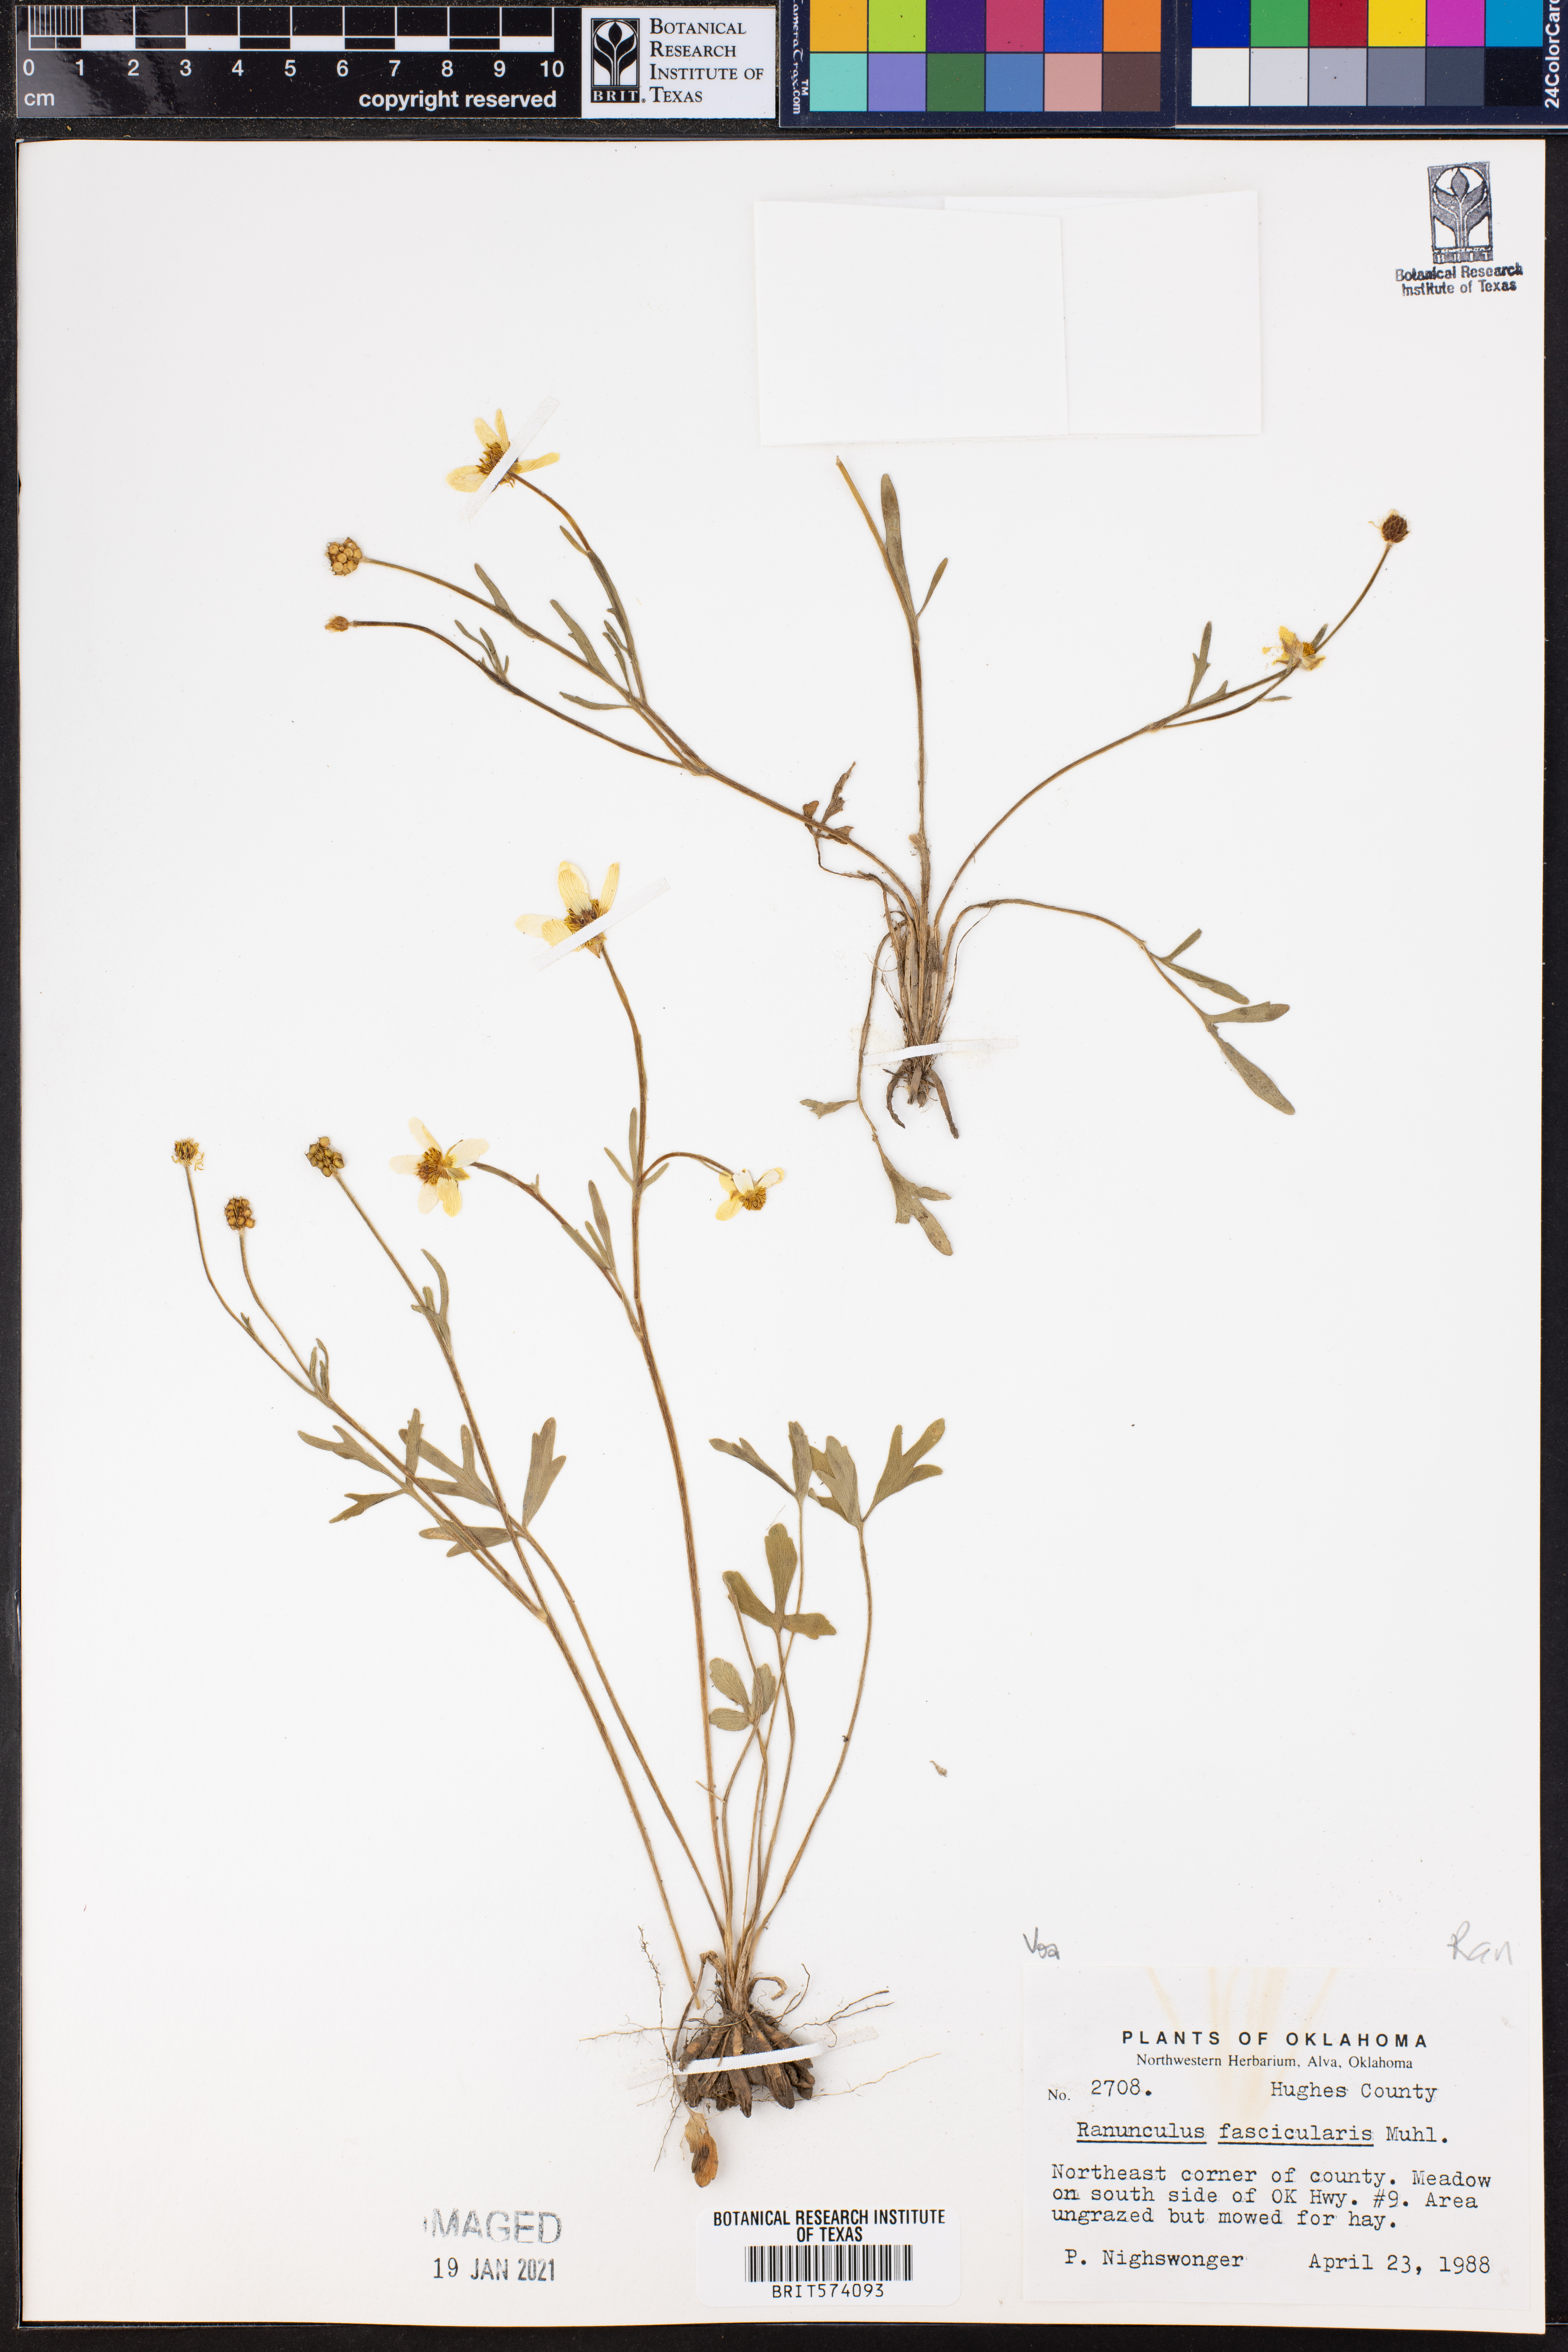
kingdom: Plantae
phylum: Tracheophyta
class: Magnoliopsida
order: Ranunculales
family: Ranunculaceae
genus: Ranunculus
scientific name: Ranunculus fascicularis
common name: Early buttercup
